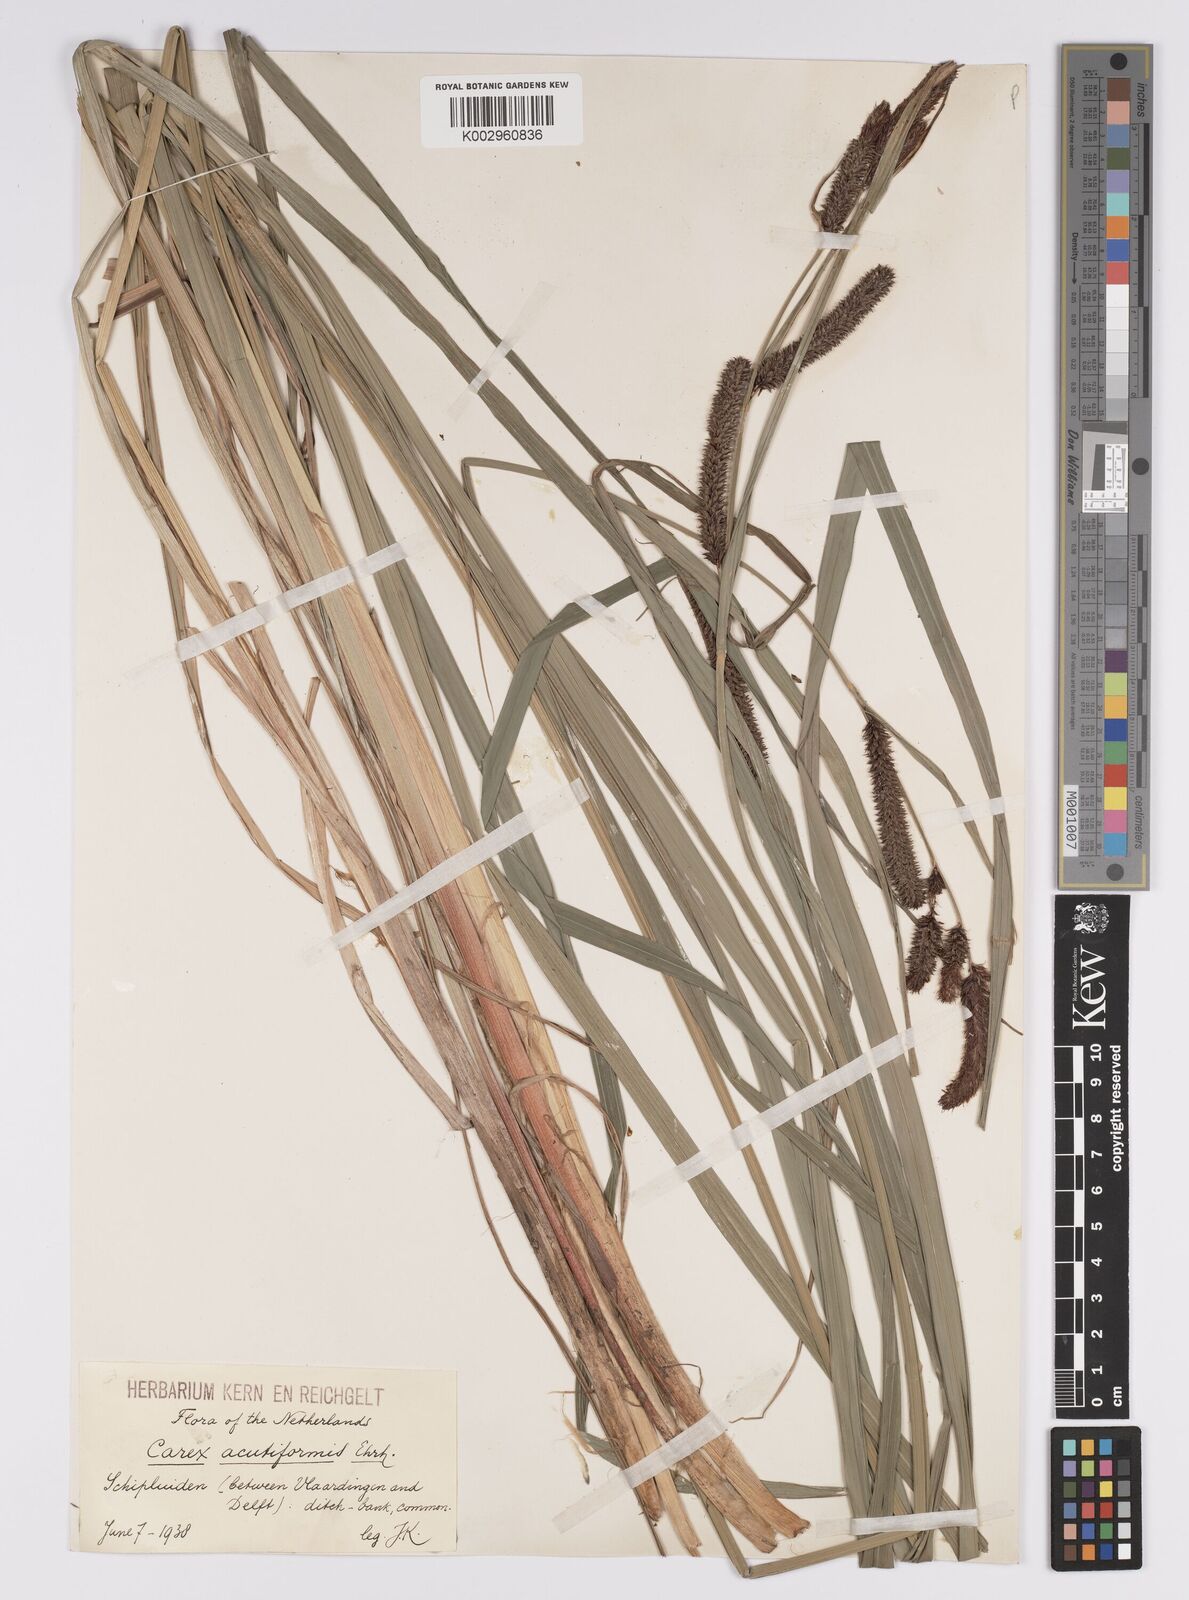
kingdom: Plantae
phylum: Tracheophyta
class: Liliopsida
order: Poales
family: Cyperaceae
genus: Carex
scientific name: Carex acutiformis
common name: Lesser pond-sedge
